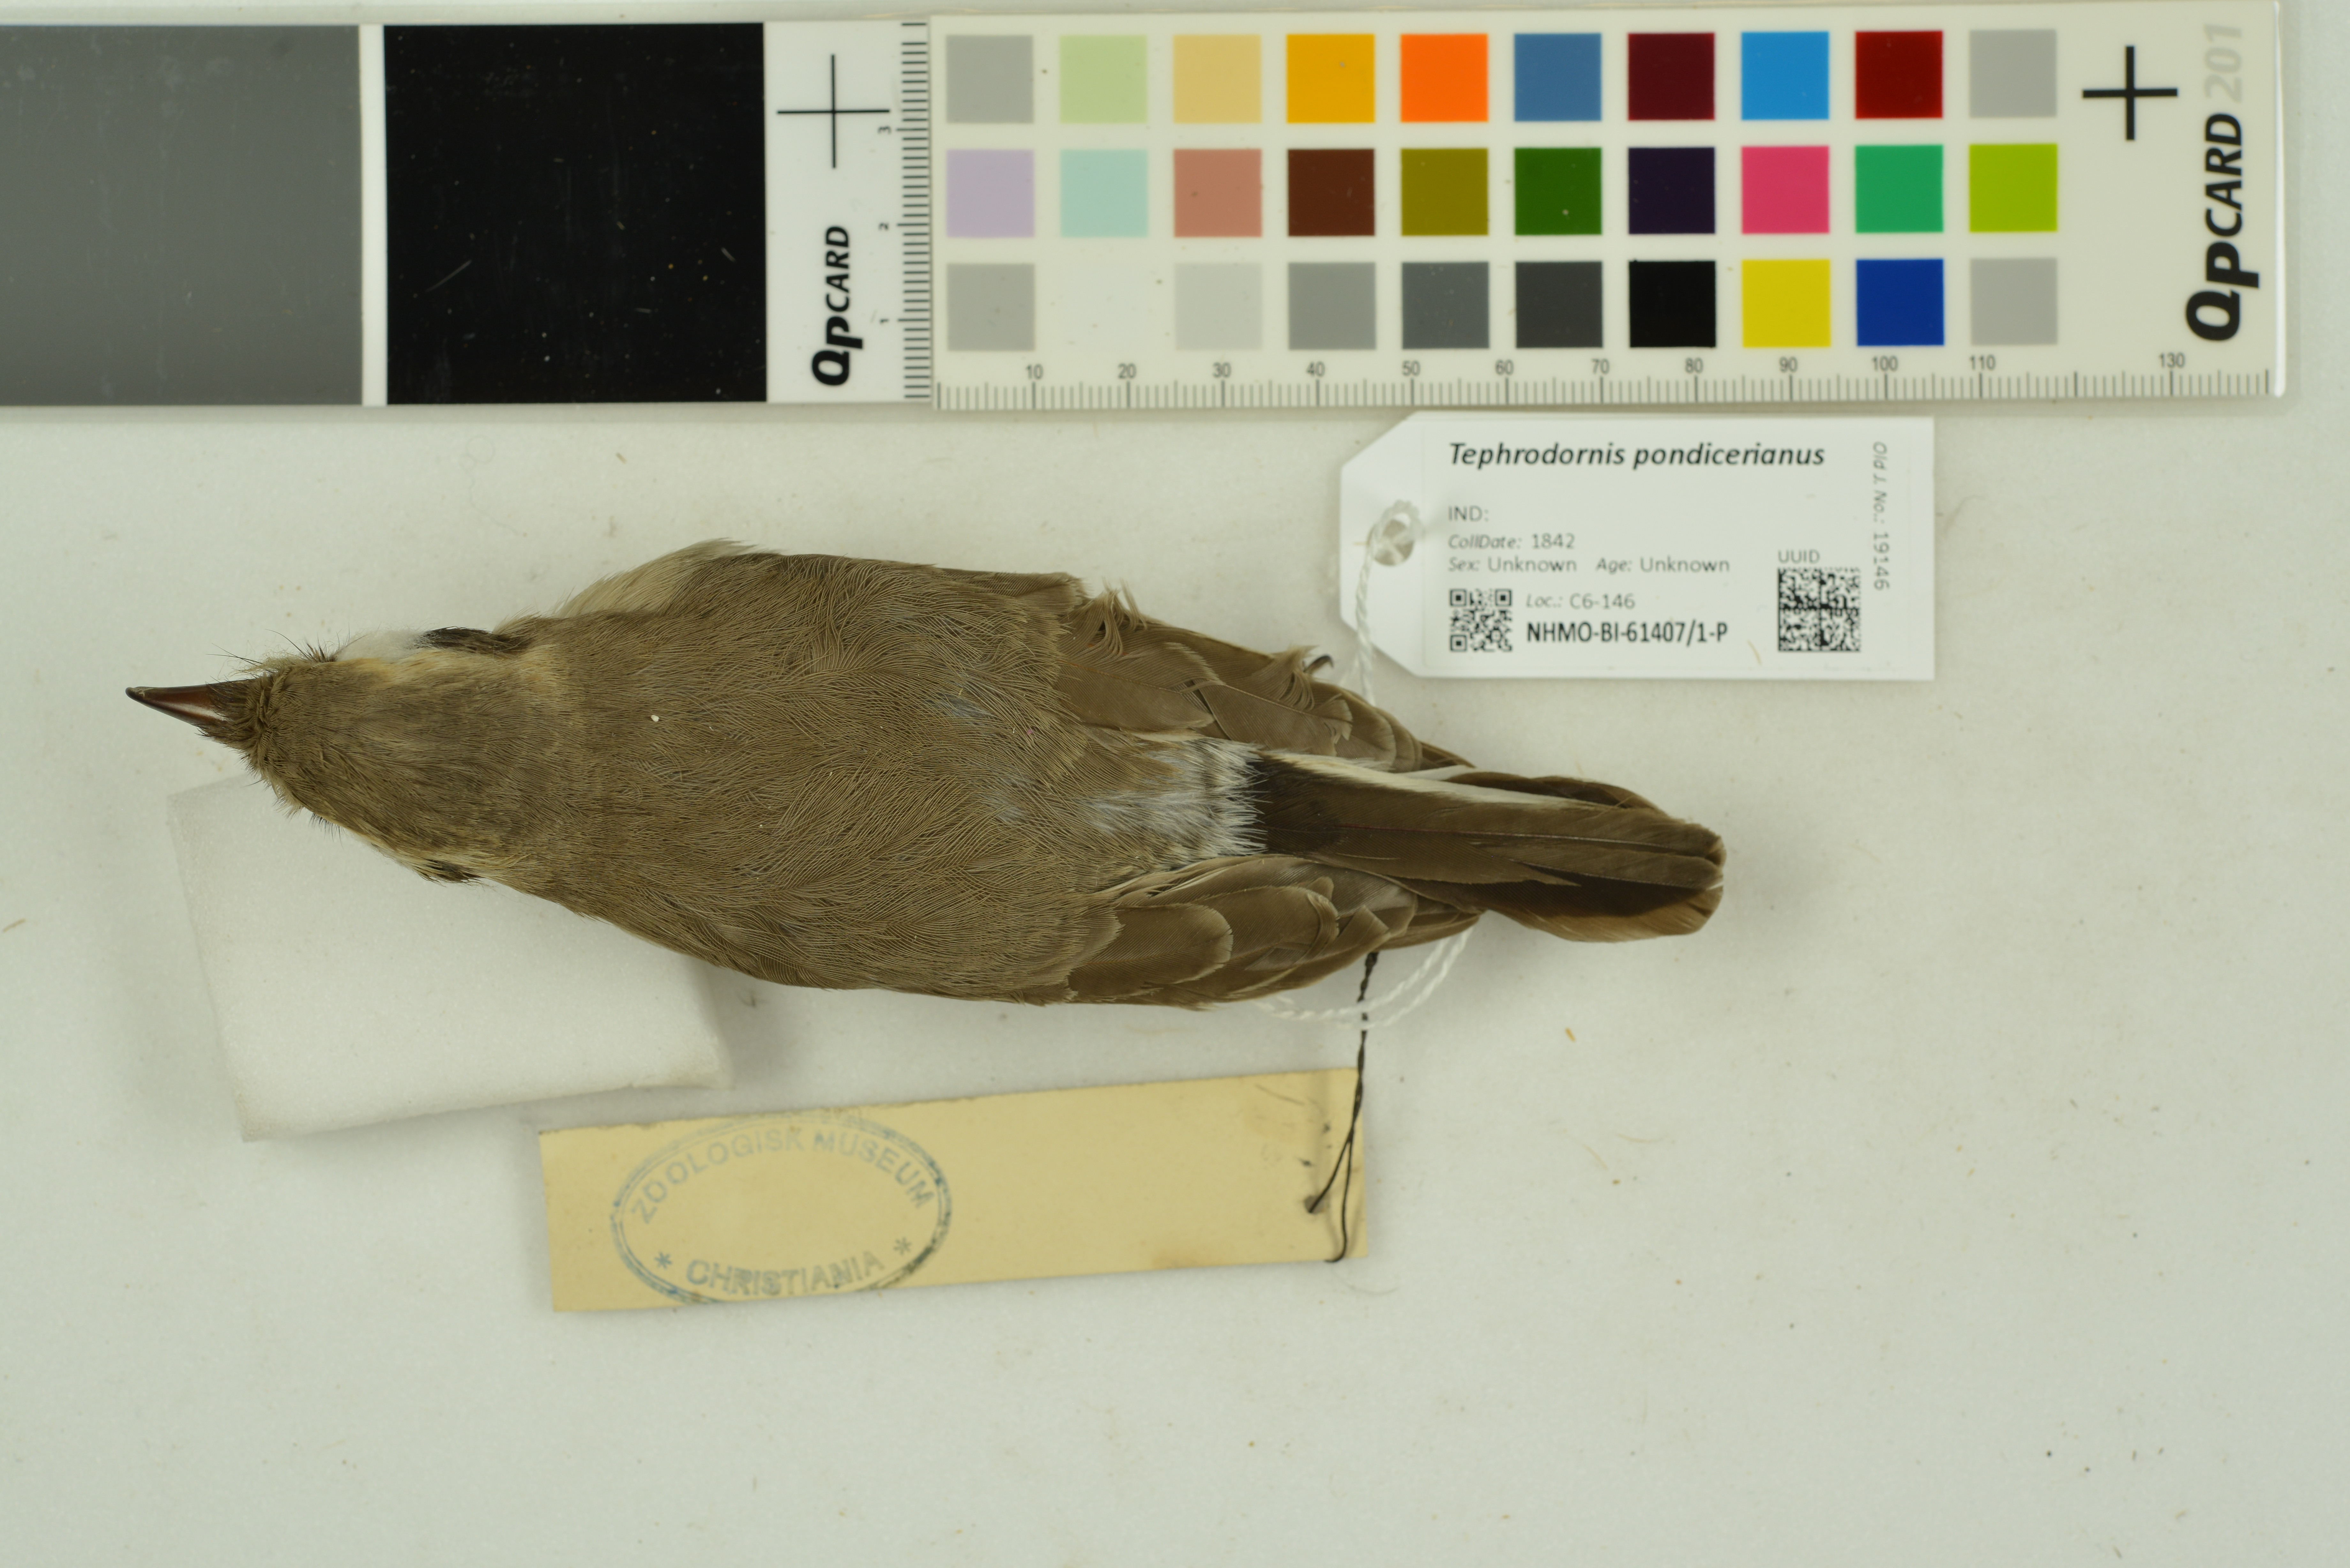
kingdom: Animalia
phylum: Chordata
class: Aves
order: Passeriformes
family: Tephrodornithidae
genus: Tephrodornis
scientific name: Tephrodornis pondicerianus
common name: Common woodshrike
